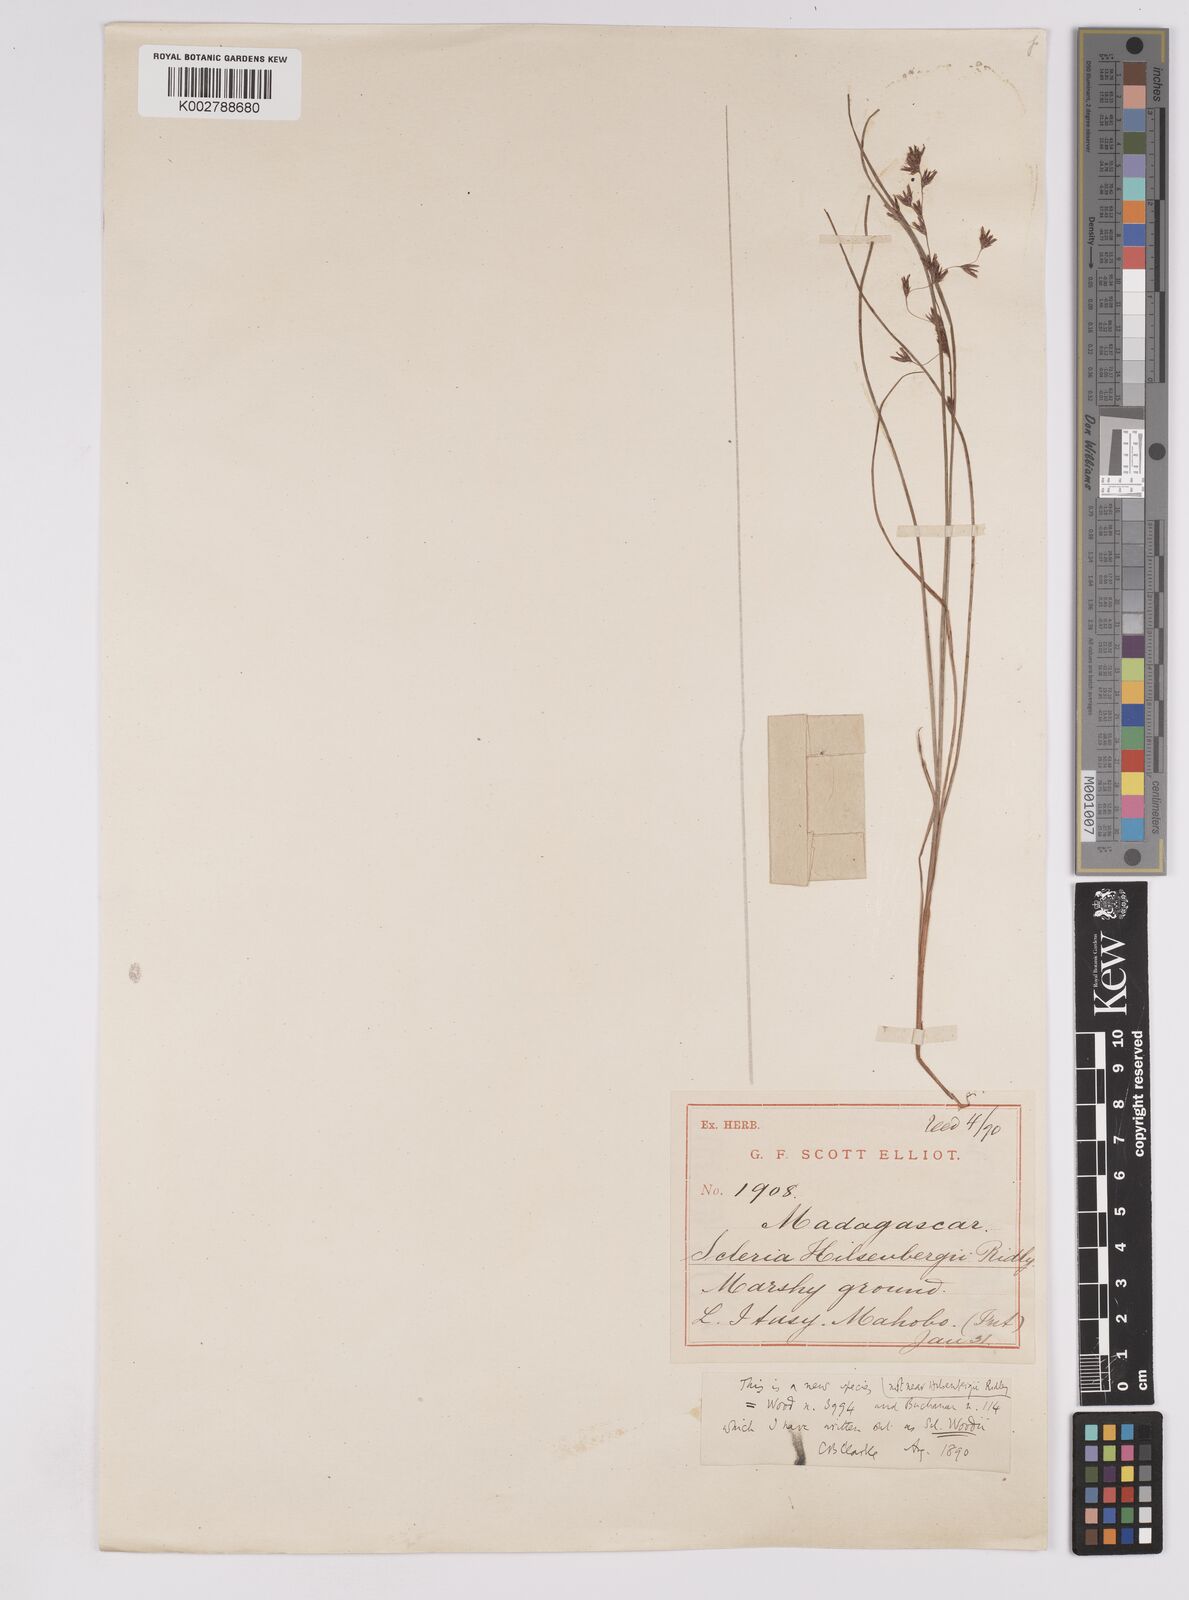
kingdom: Plantae
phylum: Tracheophyta
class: Liliopsida
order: Poales
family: Cyperaceae
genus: Scleria
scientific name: Scleria
